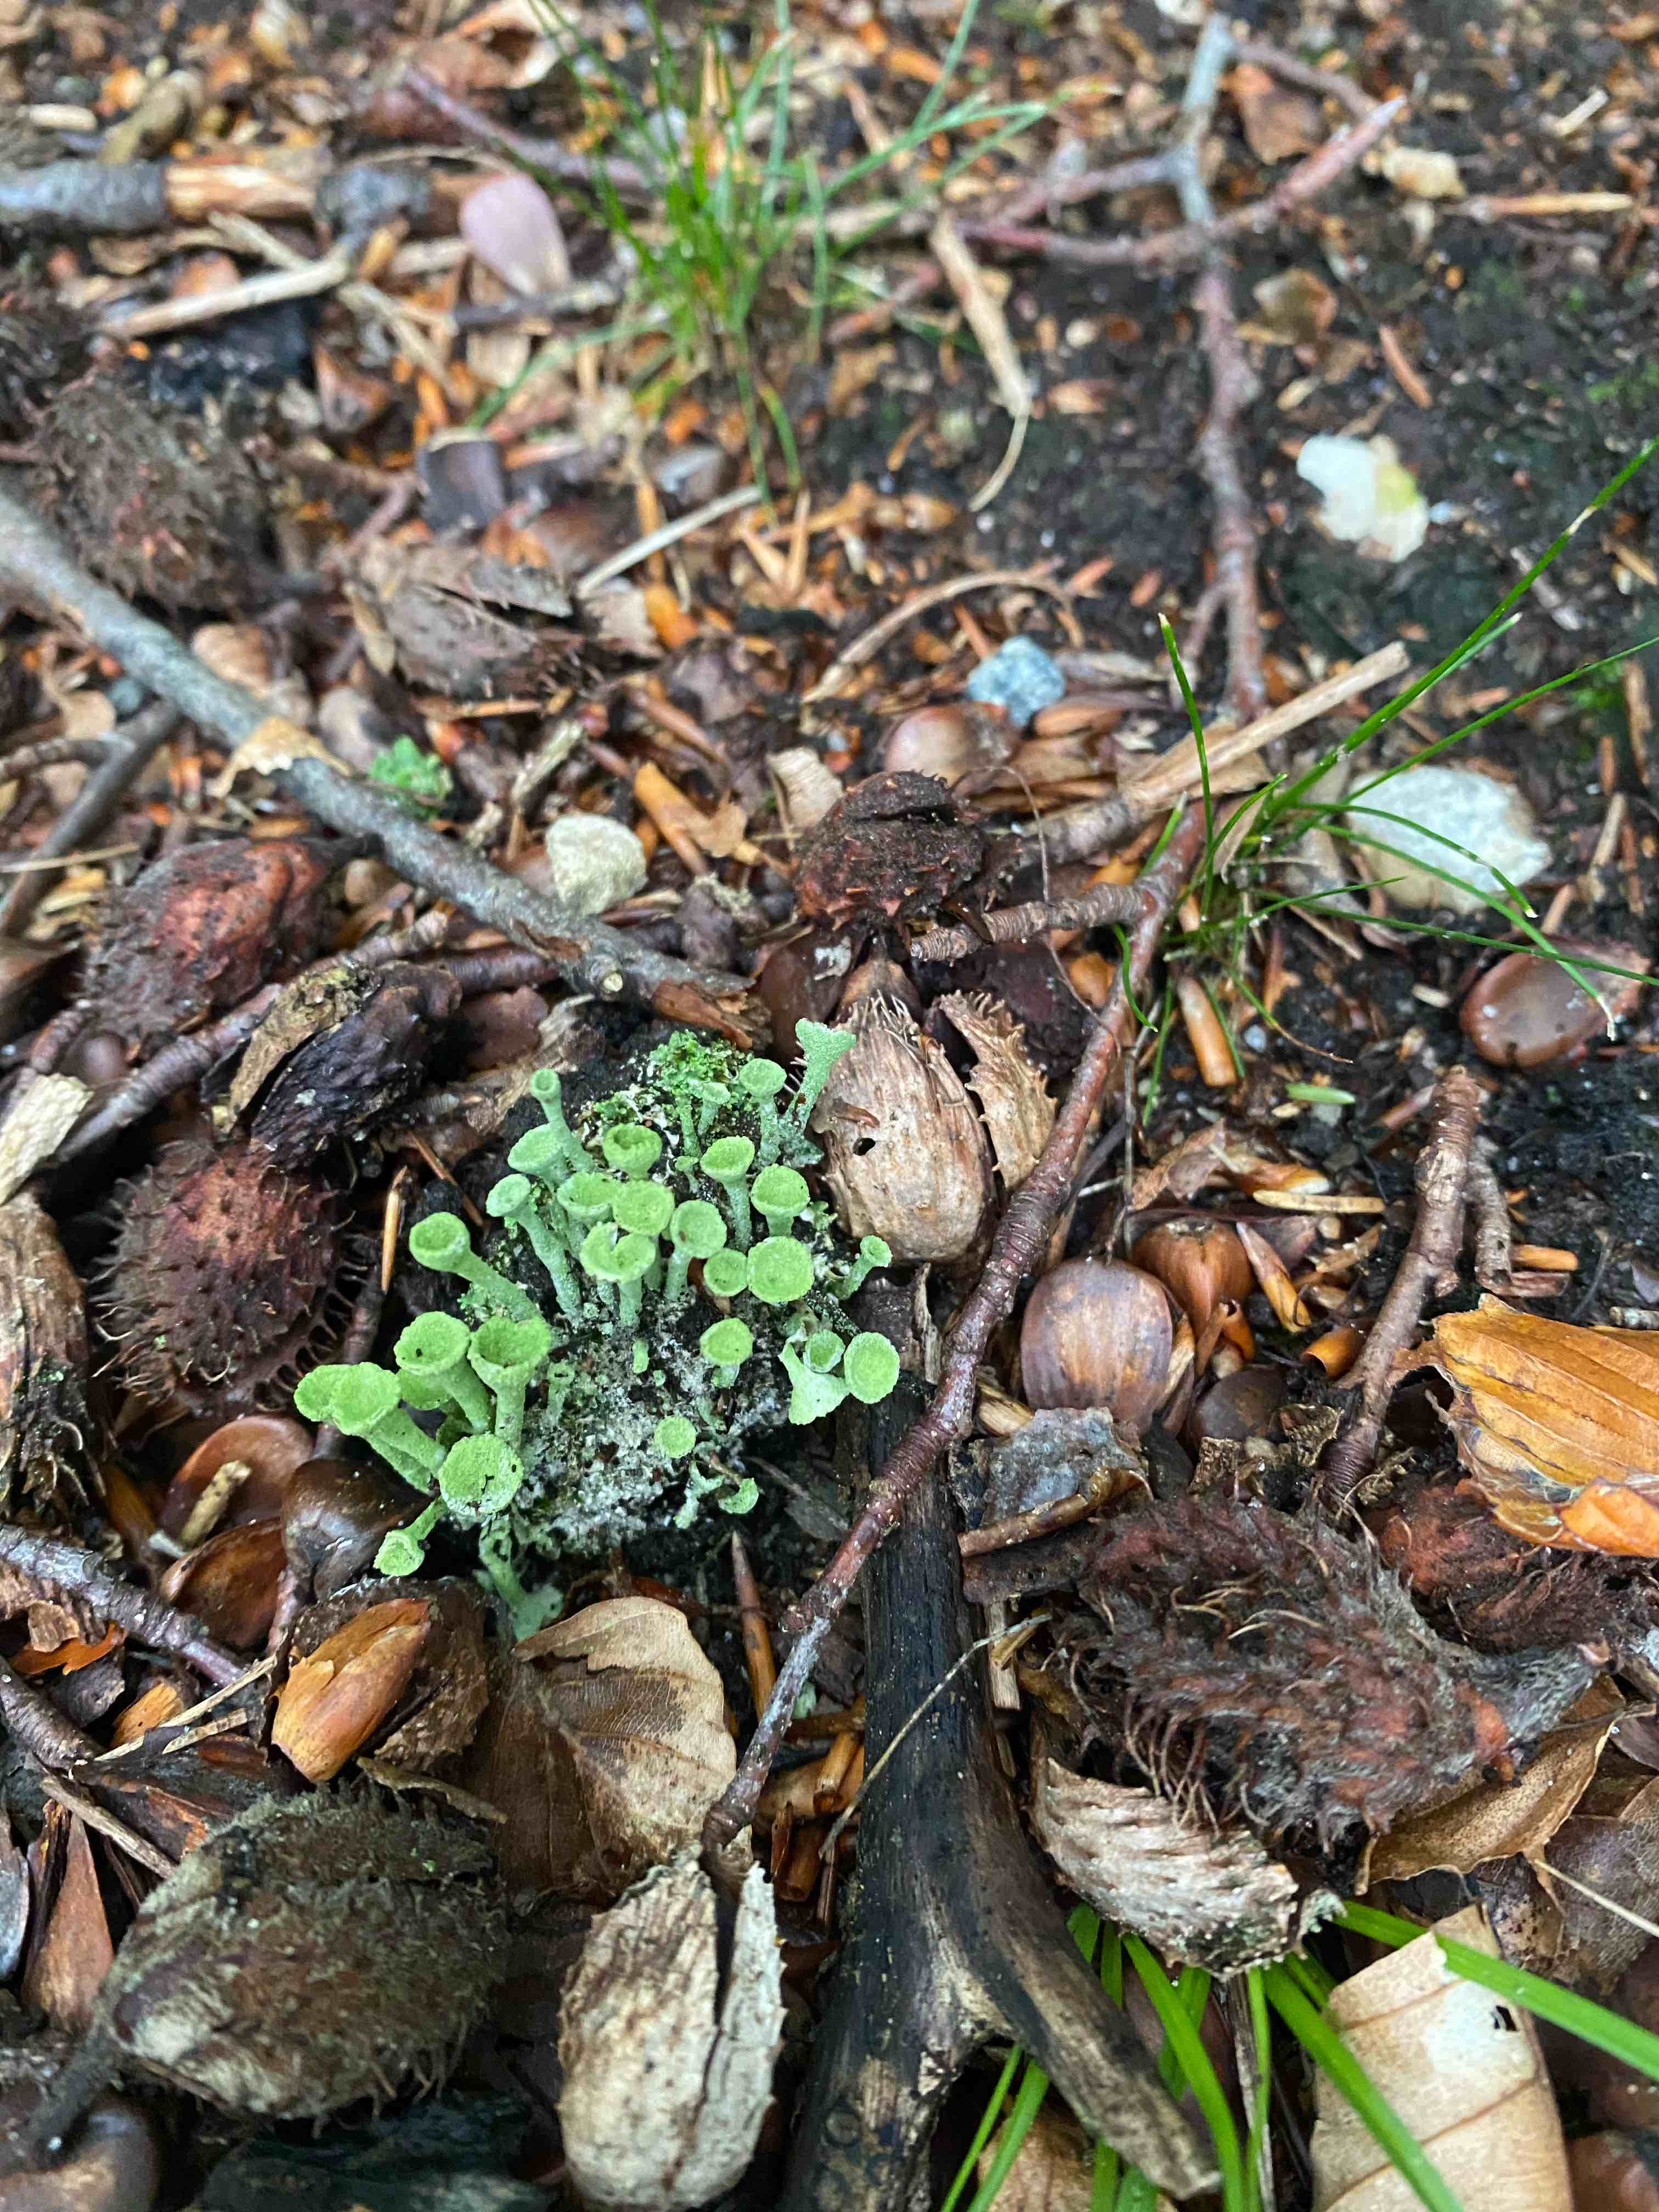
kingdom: Fungi
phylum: Ascomycota
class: Lecanoromycetes
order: Lecanorales
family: Cladoniaceae
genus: Cladonia
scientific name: Cladonia fimbriata
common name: bleggrøn bægerlav
